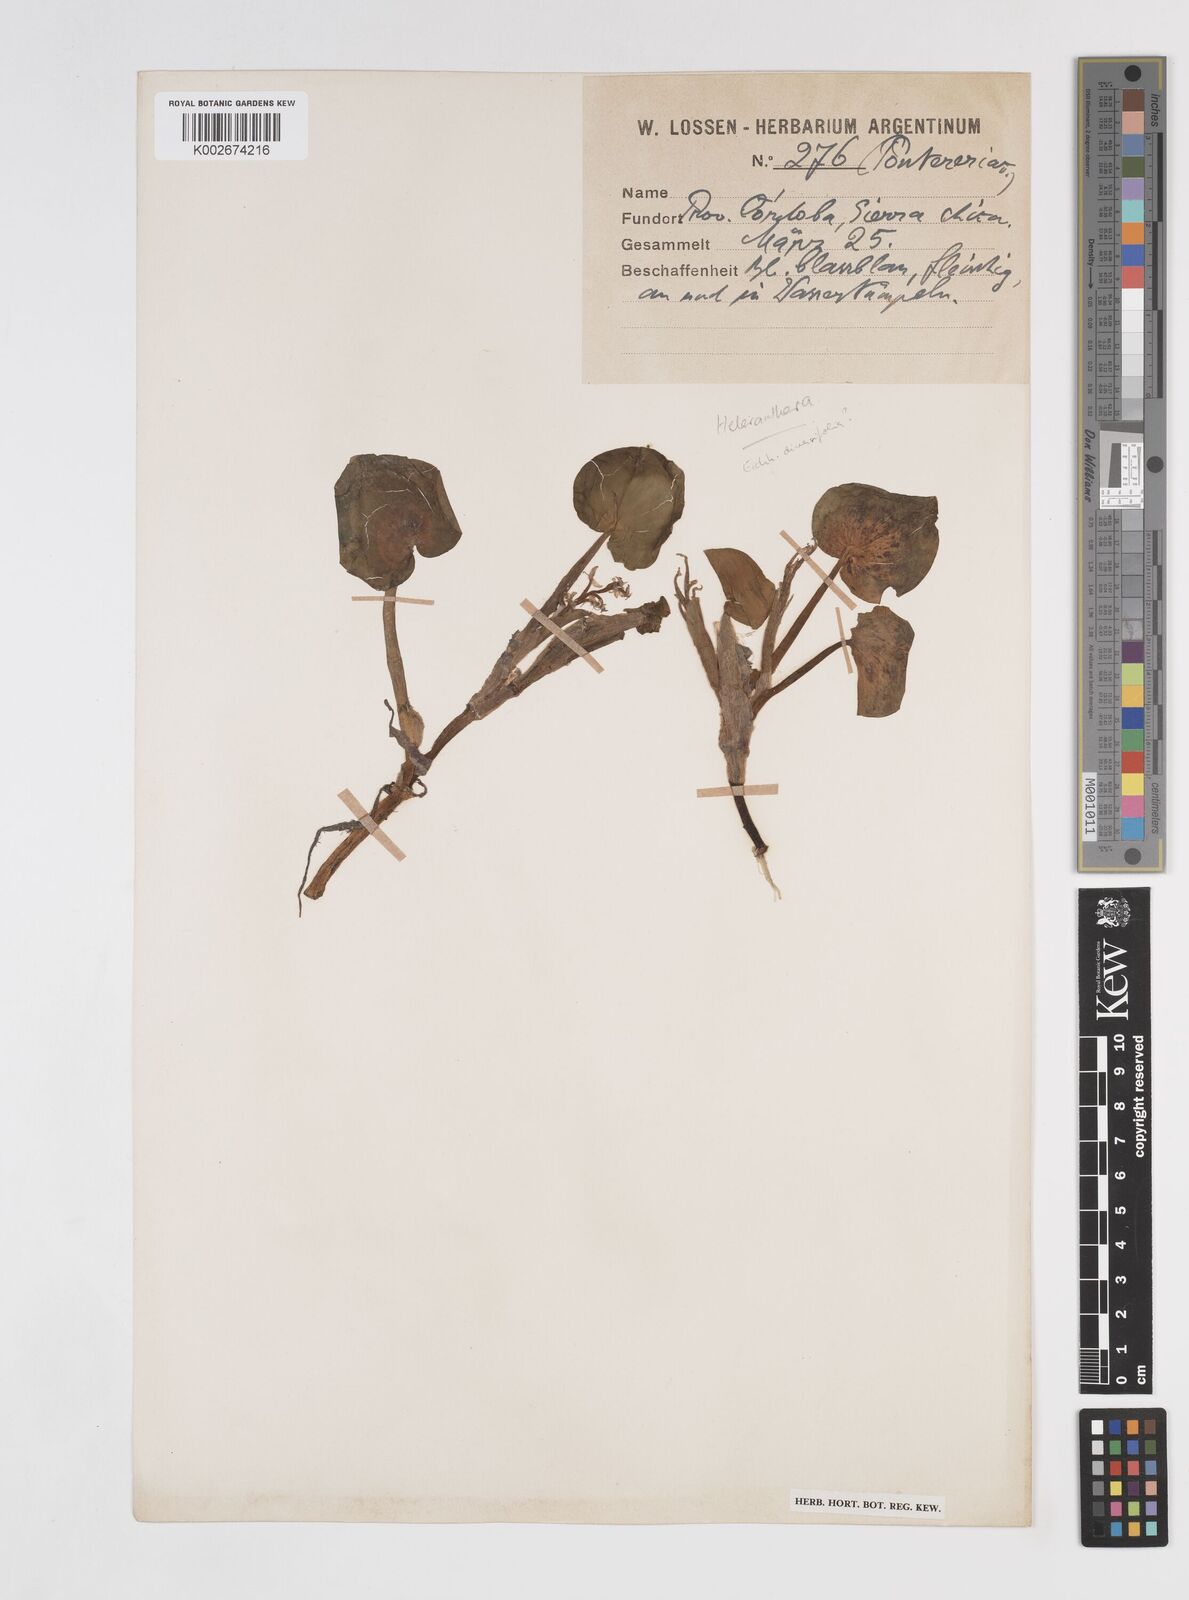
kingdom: Plantae
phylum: Tracheophyta
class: Liliopsida
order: Commelinales
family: Pontederiaceae
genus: Pontederia
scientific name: Pontederia
